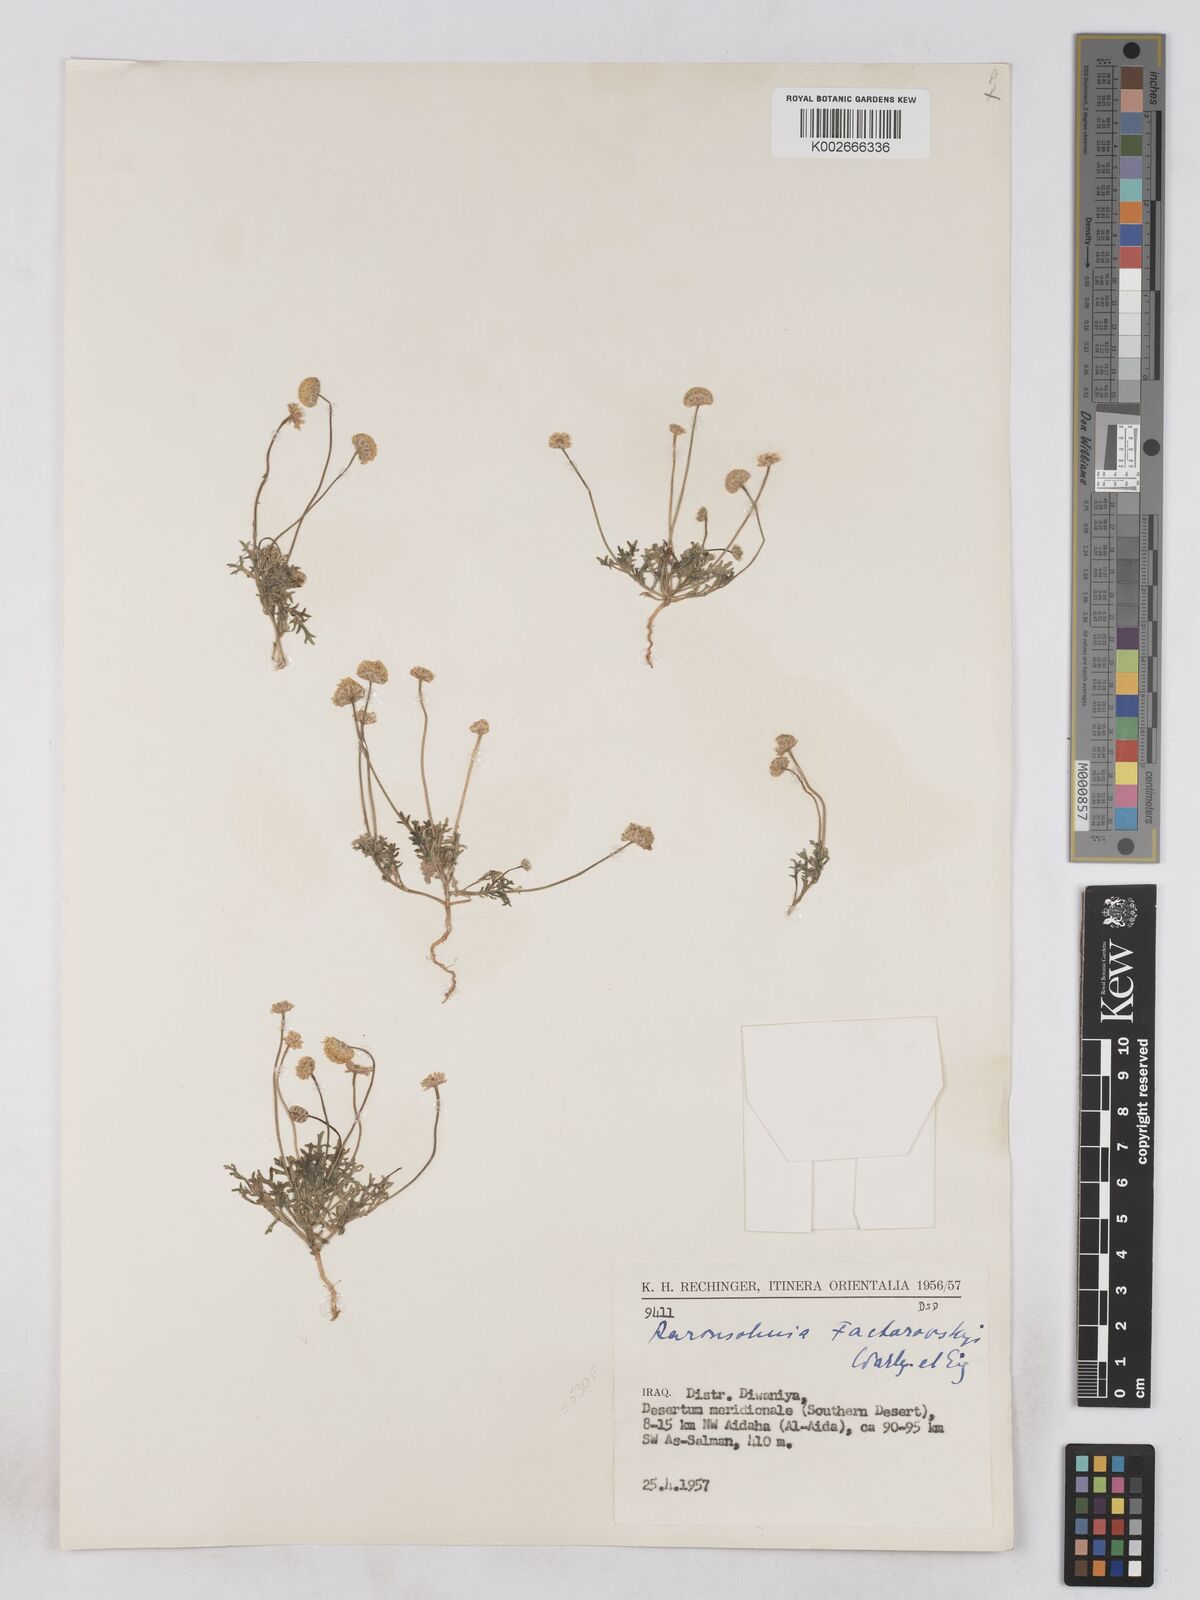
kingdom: Plantae
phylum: Tracheophyta
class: Magnoliopsida
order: Asterales
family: Asteraceae
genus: Otoglyphis
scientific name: Otoglyphis factorovskyi
